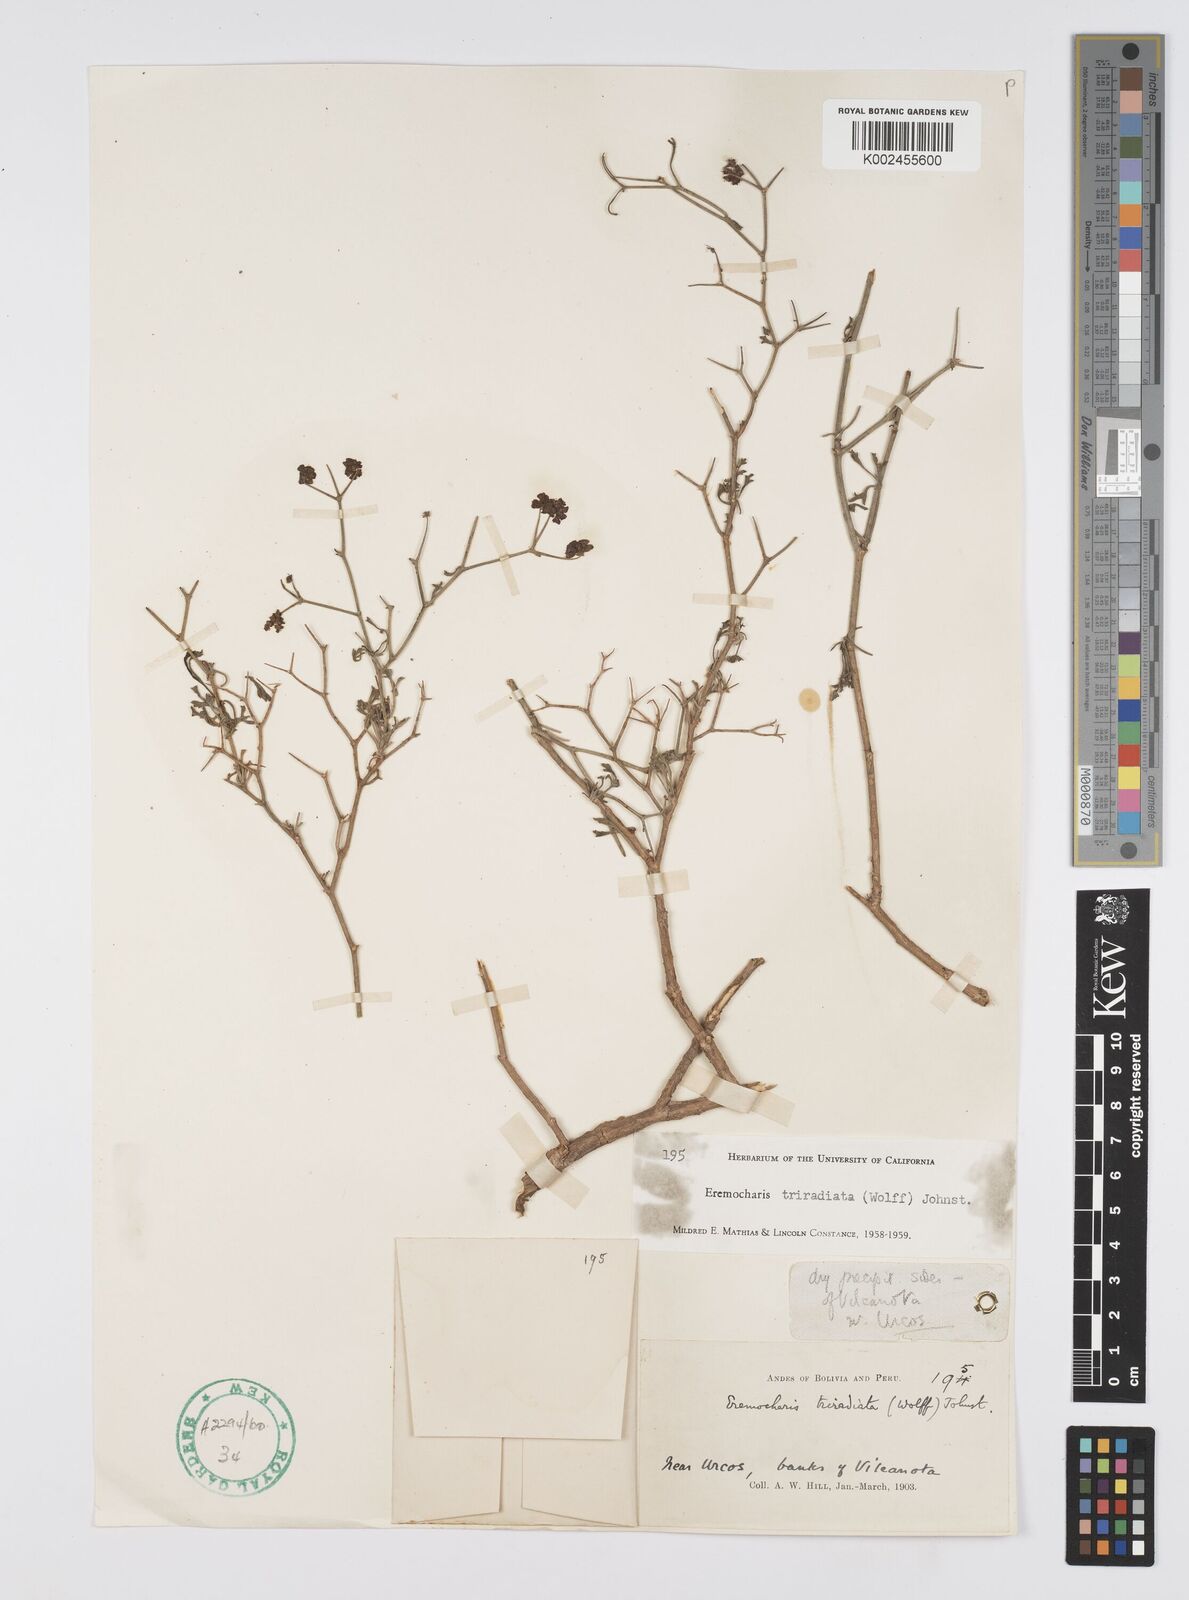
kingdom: Plantae
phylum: Tracheophyta
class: Magnoliopsida
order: Apiales
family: Apiaceae
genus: Eremocharis
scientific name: Eremocharis triradiata
